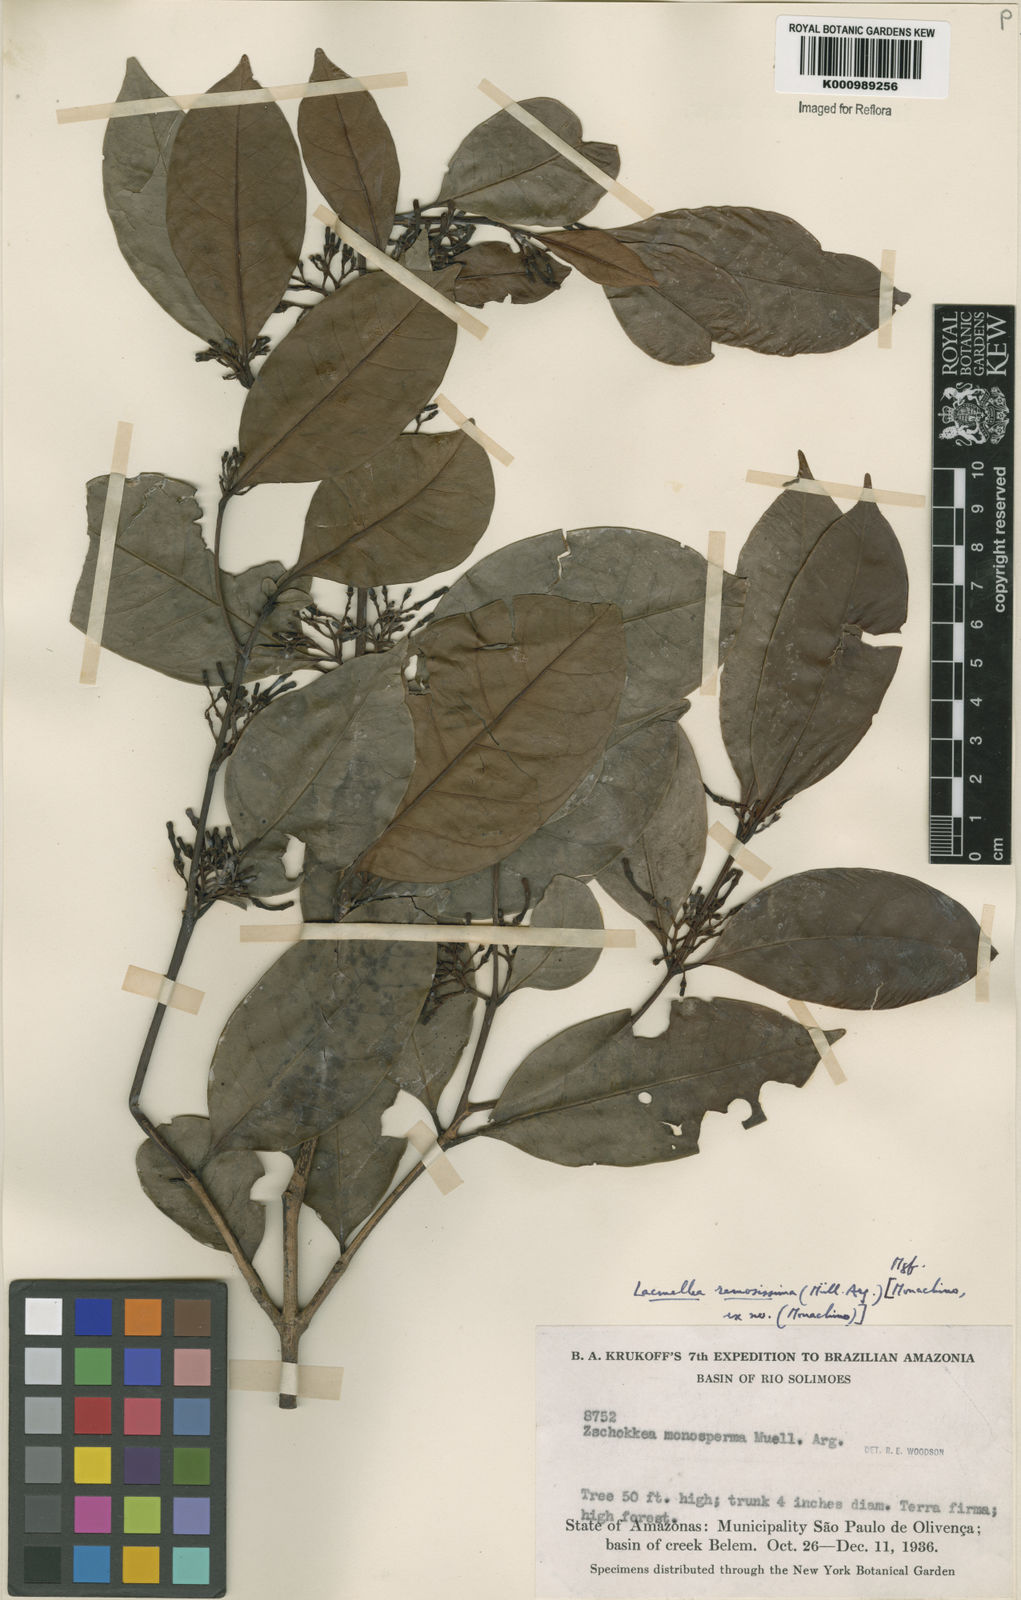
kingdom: Plantae
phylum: Tracheophyta
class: Magnoliopsida
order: Gentianales
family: Apocynaceae
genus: Lacmellea
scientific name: Lacmellea
